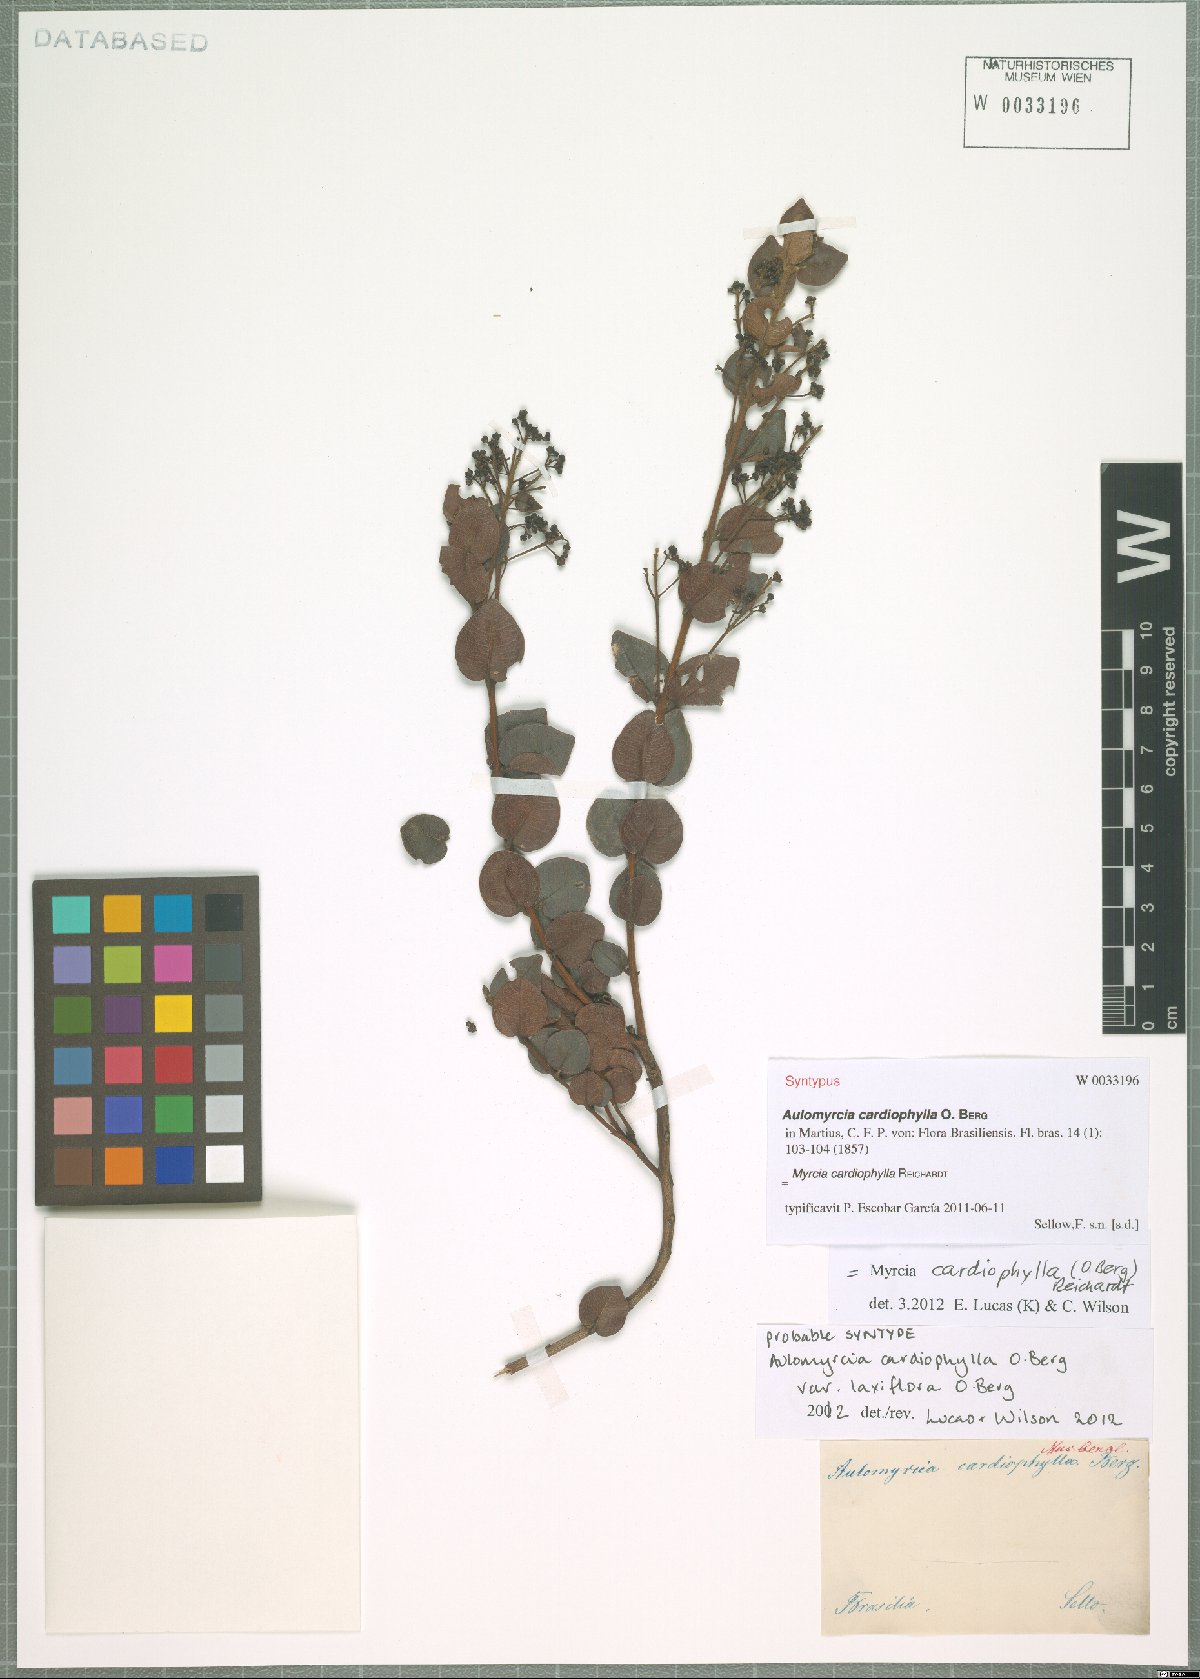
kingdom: Plantae
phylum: Tracheophyta
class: Magnoliopsida
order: Myrtales
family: Myrtaceae
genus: Myrcia
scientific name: Myrcia altera
